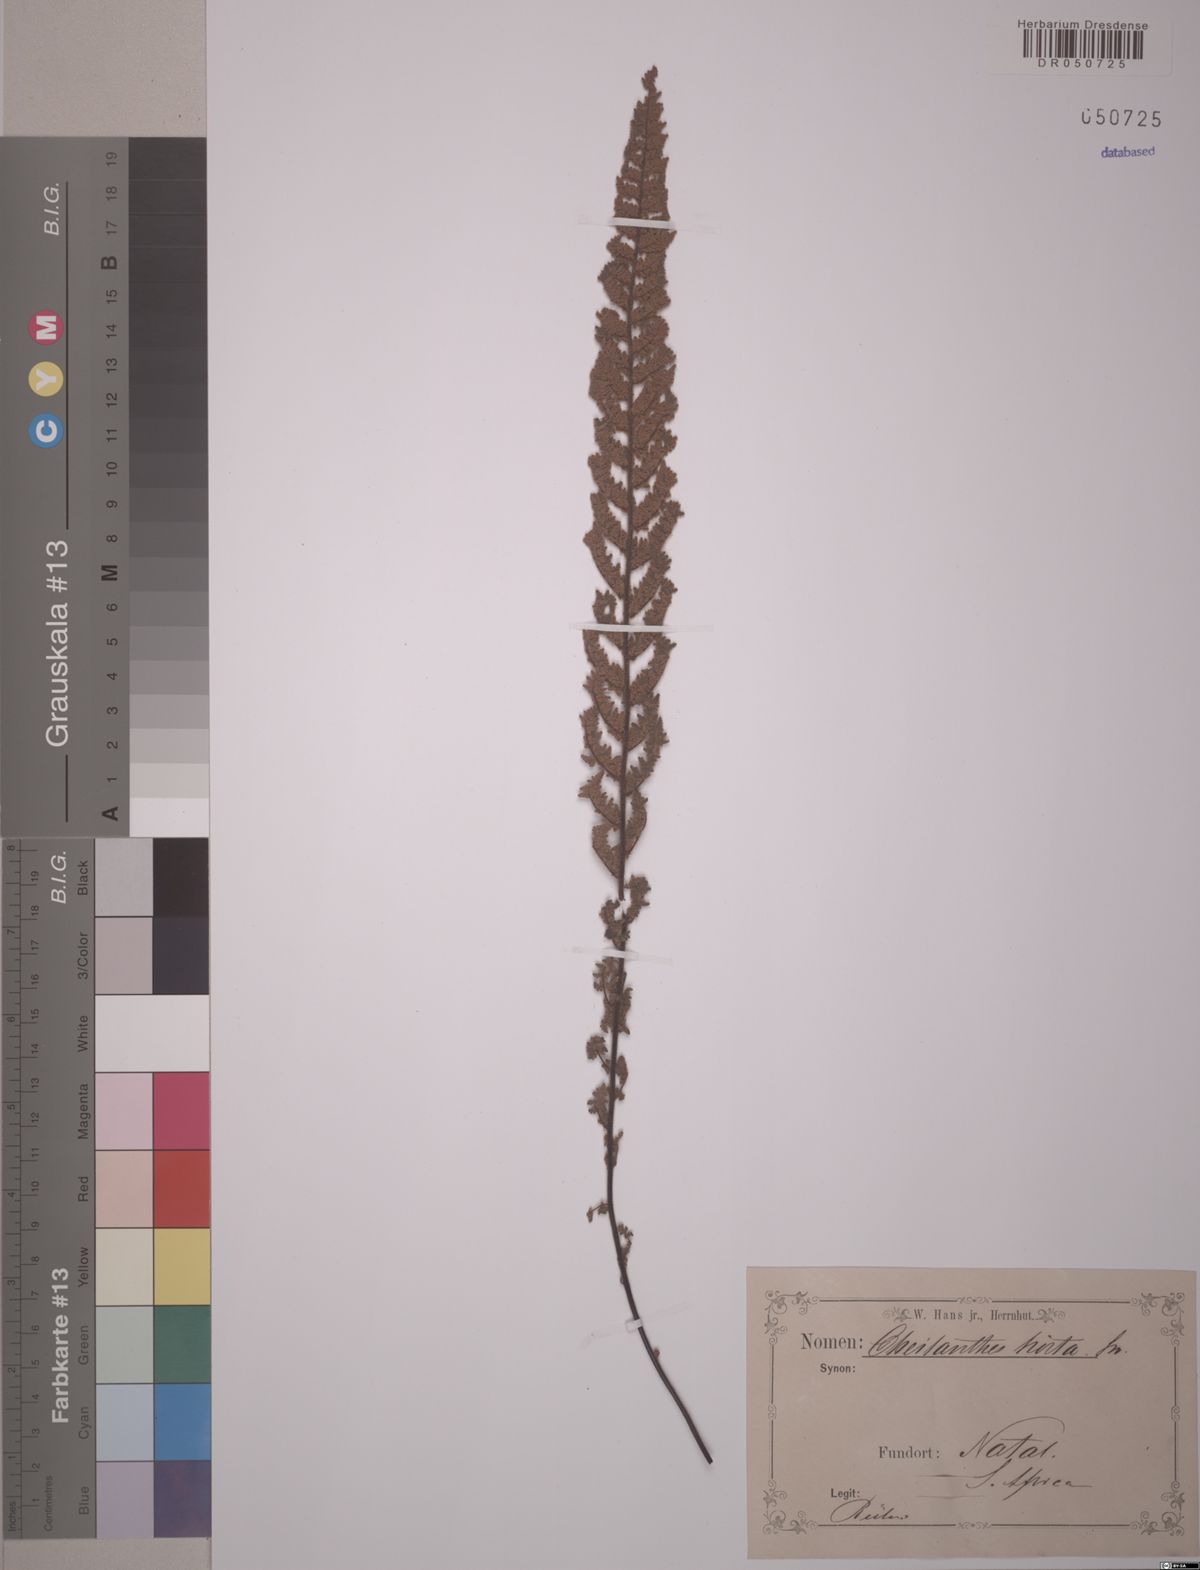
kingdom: Plantae
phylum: Tracheophyta
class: Polypodiopsida
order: Polypodiales
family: Pteridaceae
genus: Cheilanthes
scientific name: Cheilanthes hirta
